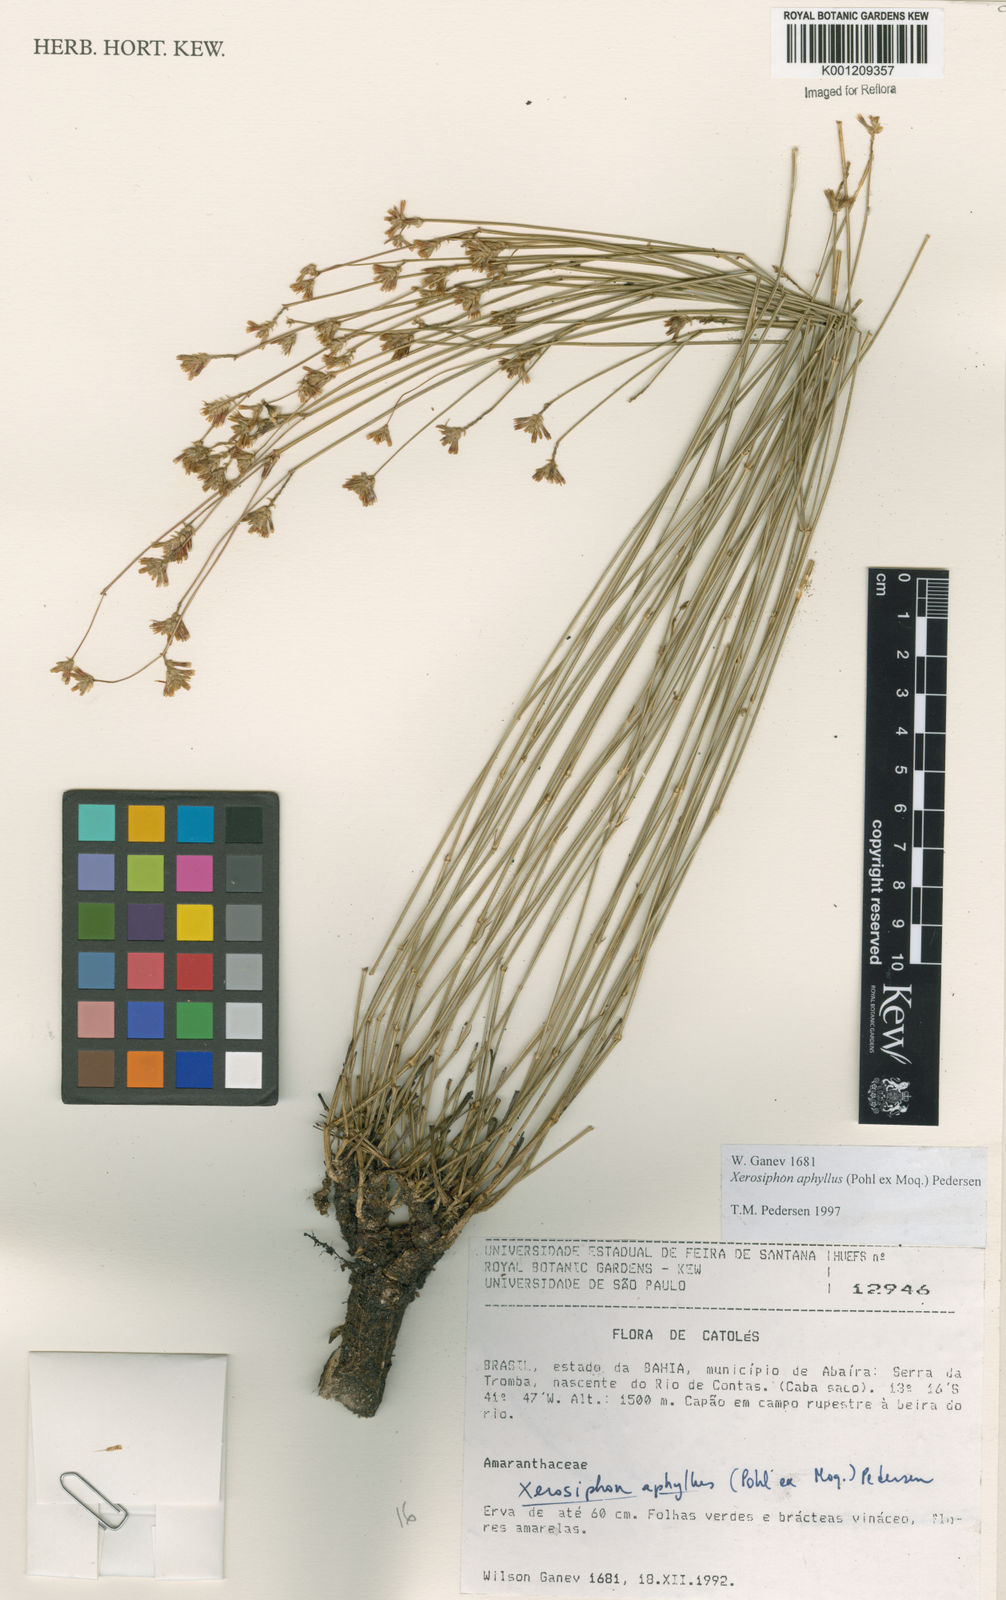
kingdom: Plantae
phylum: Tracheophyta
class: Magnoliopsida
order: Caryophyllales
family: Amaranthaceae
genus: Gomphrena
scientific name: Gomphrena aphylla
